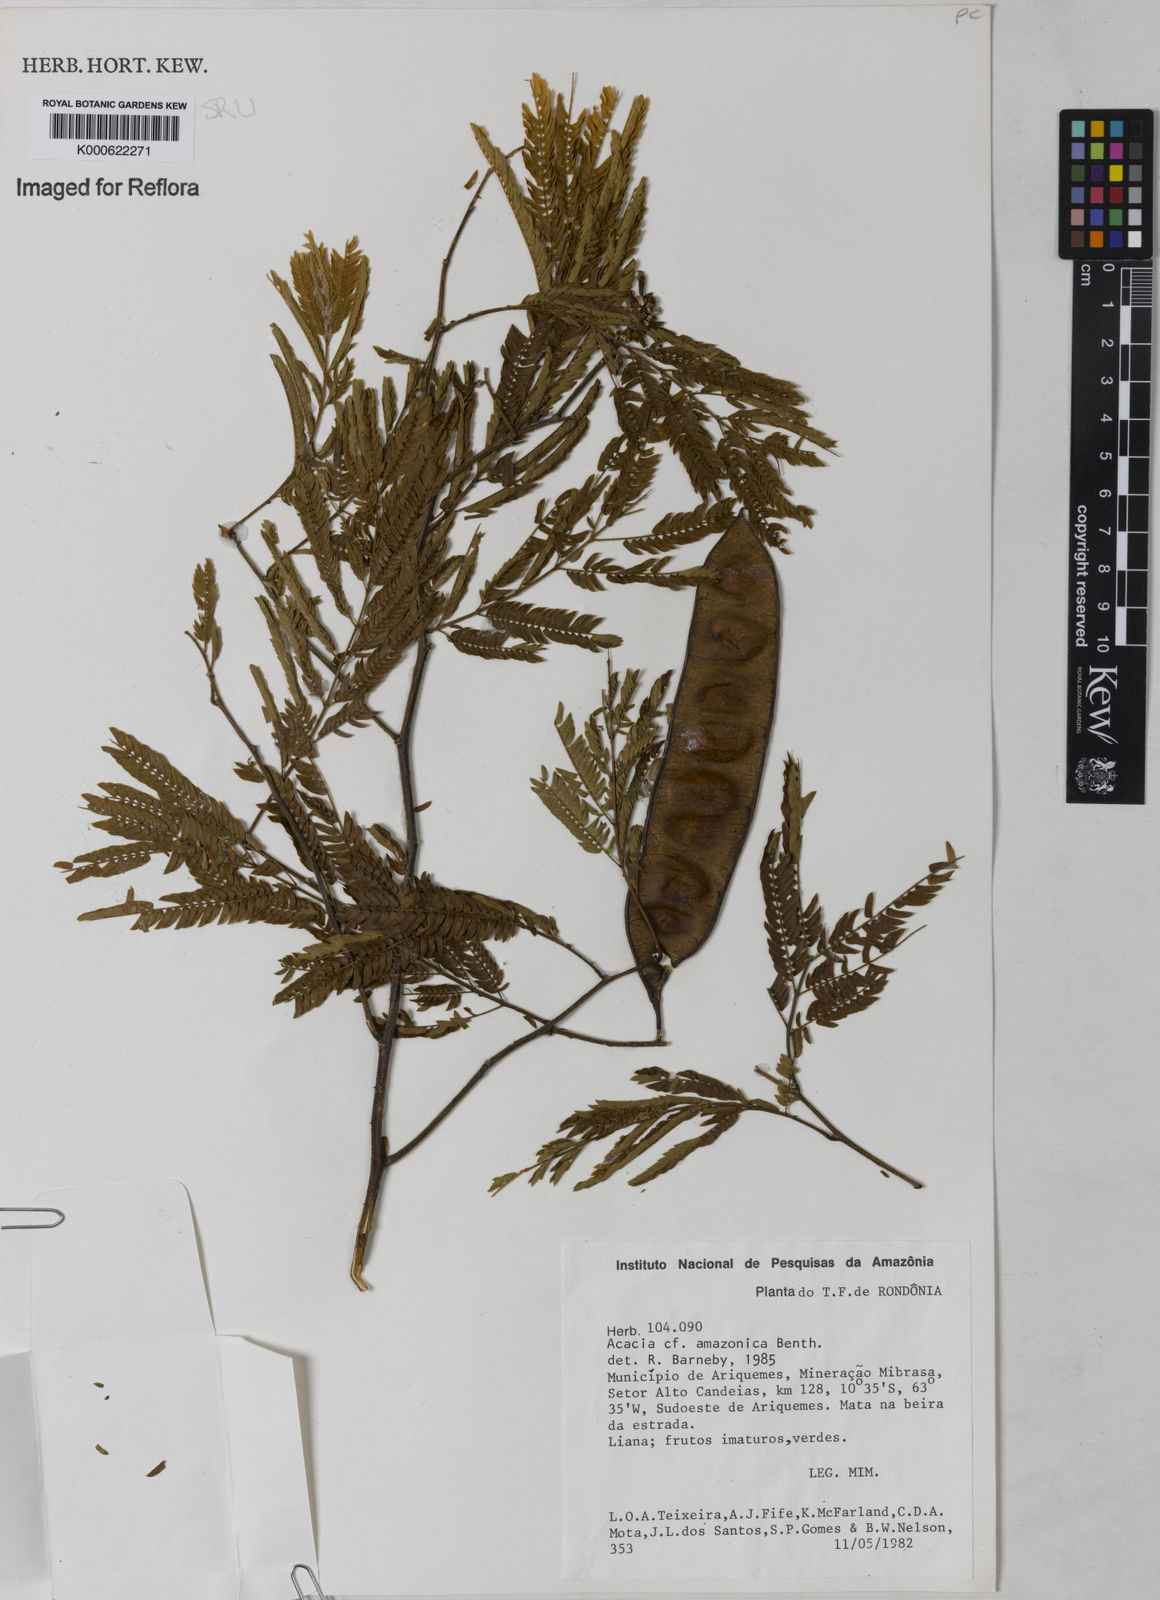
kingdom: Plantae
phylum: Tracheophyta
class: Magnoliopsida
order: Fabales
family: Fabaceae
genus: Senegalia
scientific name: Senegalia amazonica
